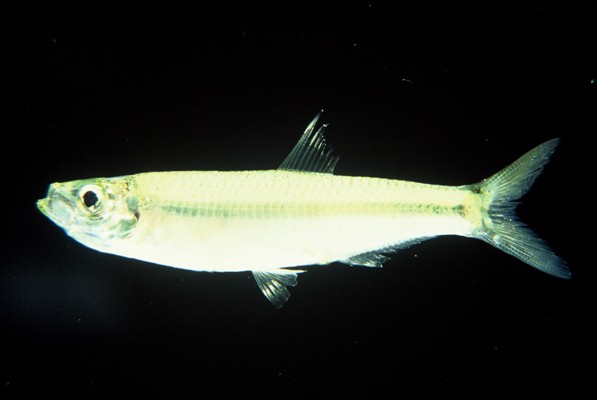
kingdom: Animalia
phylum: Chordata
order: Clupeiformes
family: Clupeidae
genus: Gilchristella
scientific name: Gilchristella aestuaria
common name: Estuarine round-herring
